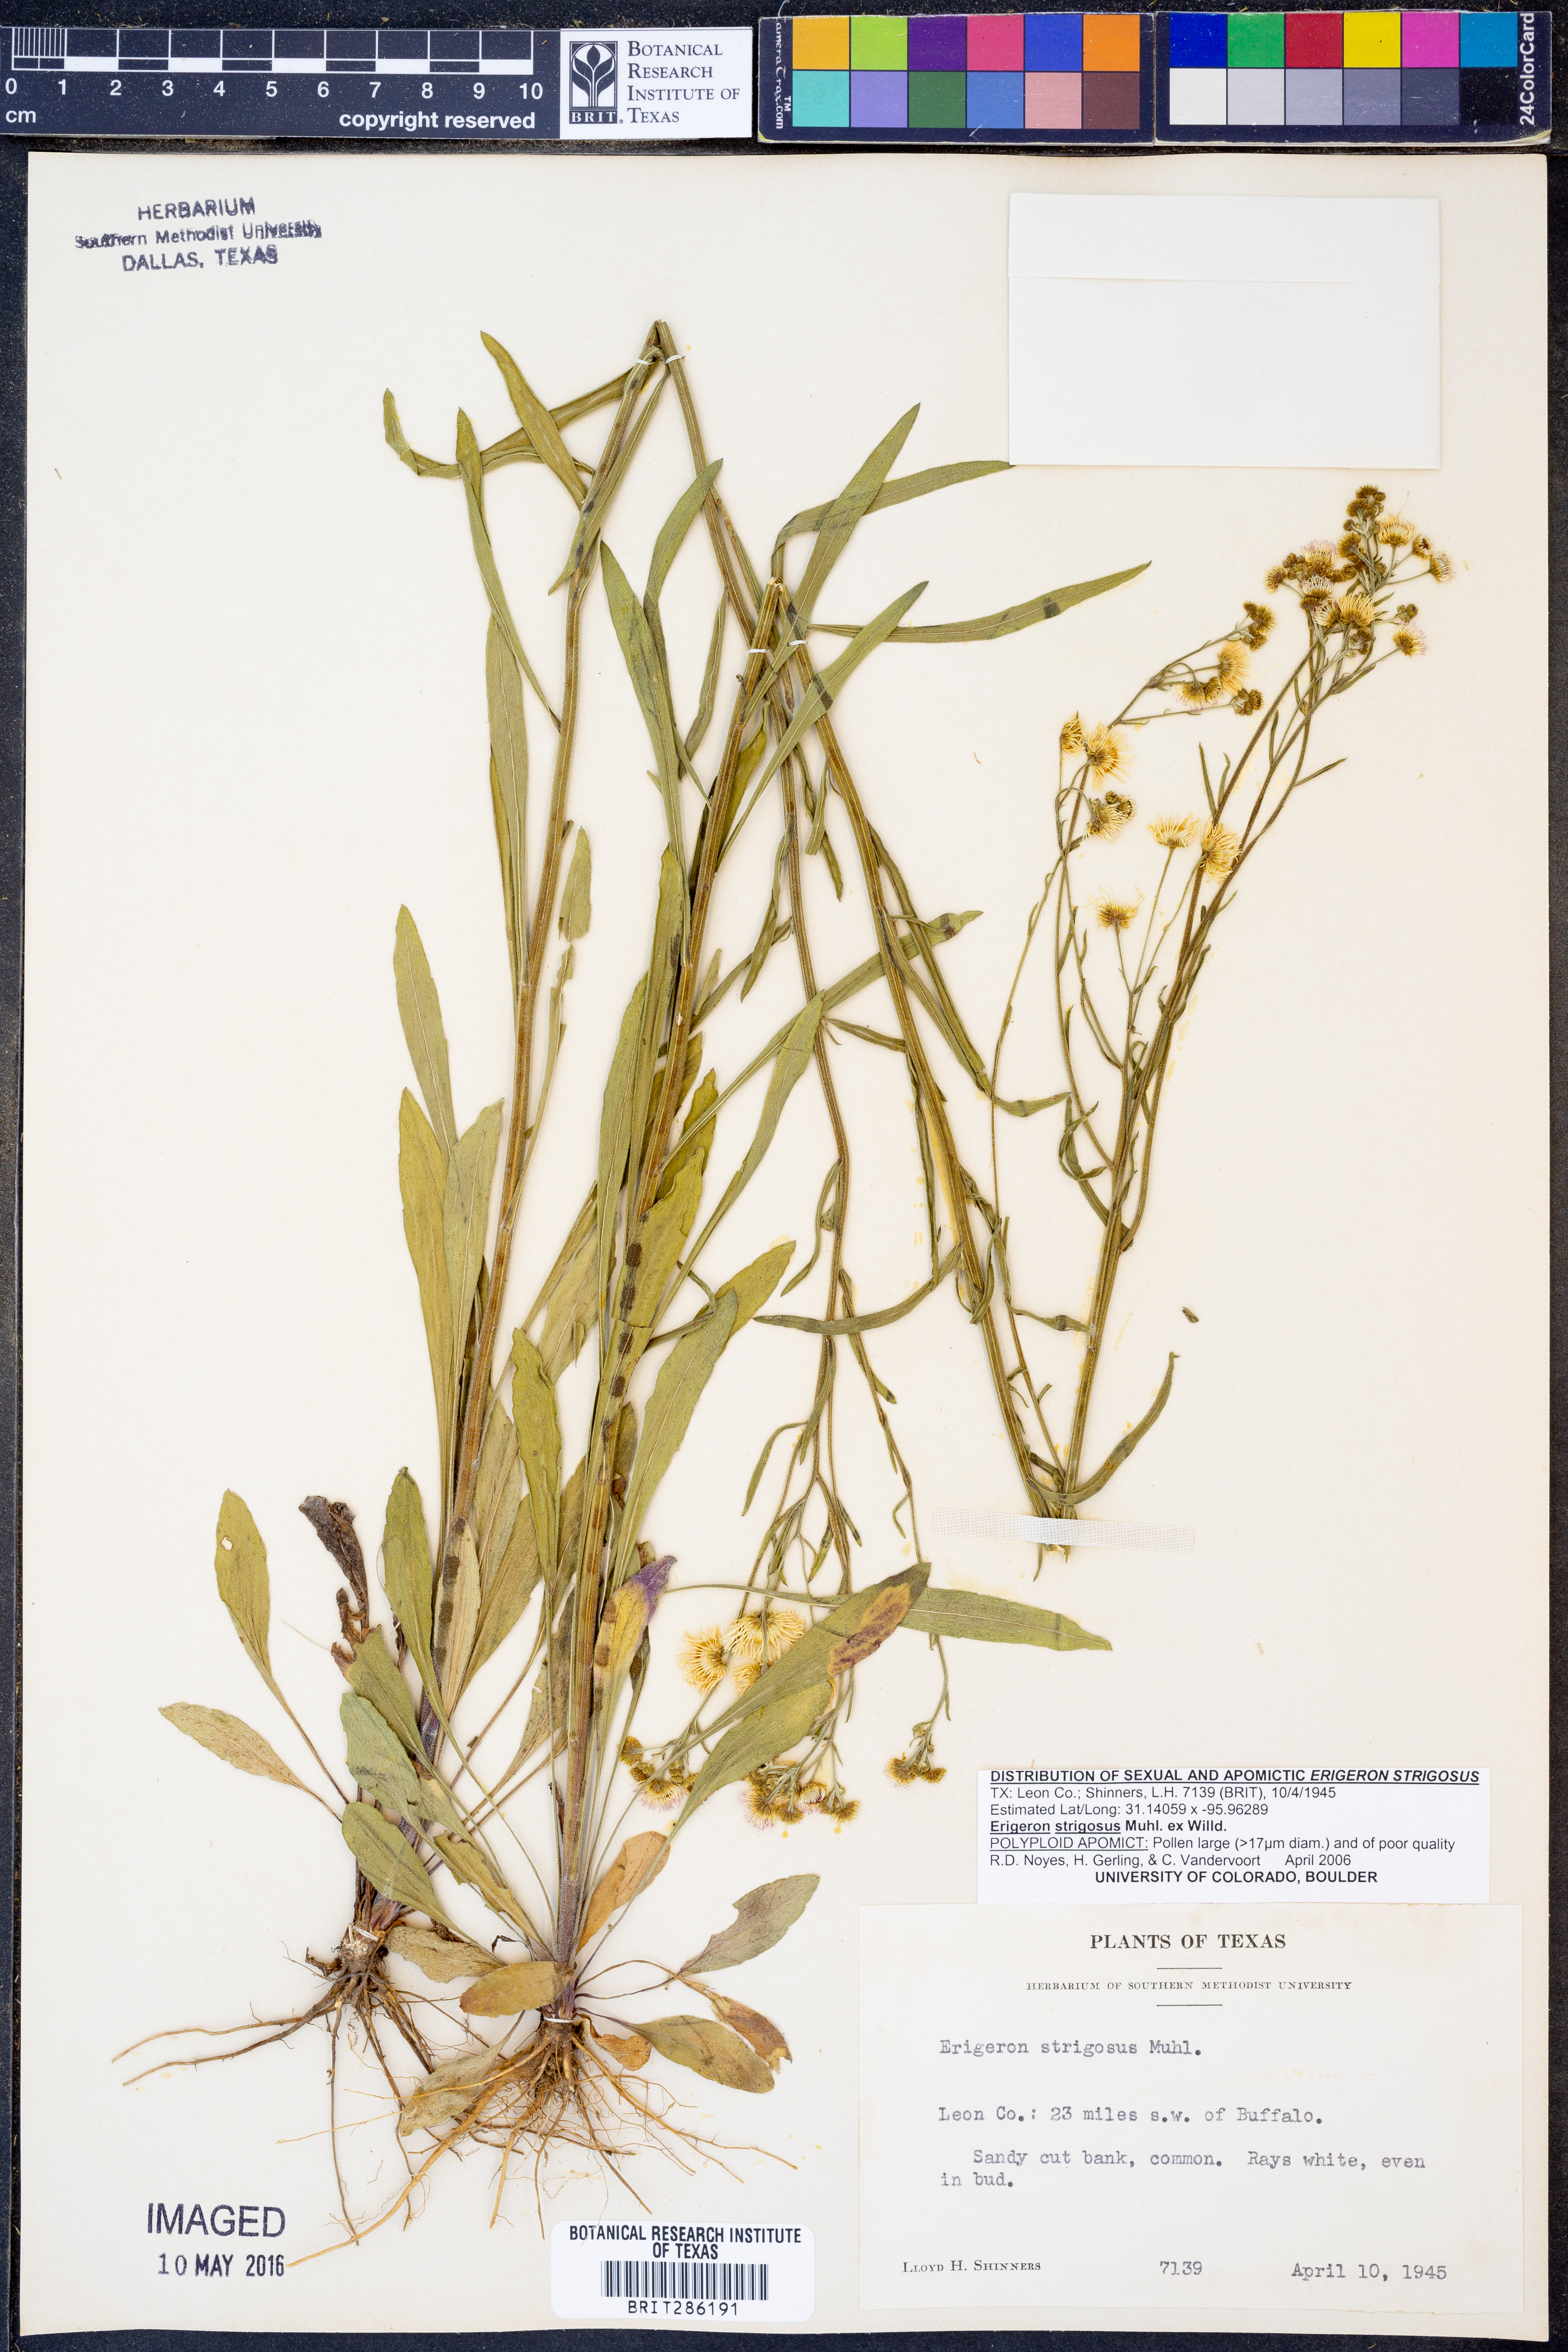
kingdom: Plantae
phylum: Tracheophyta
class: Magnoliopsida
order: Asterales
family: Asteraceae
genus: Erigeron
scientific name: Erigeron strigosus
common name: Common eastern fleabane
